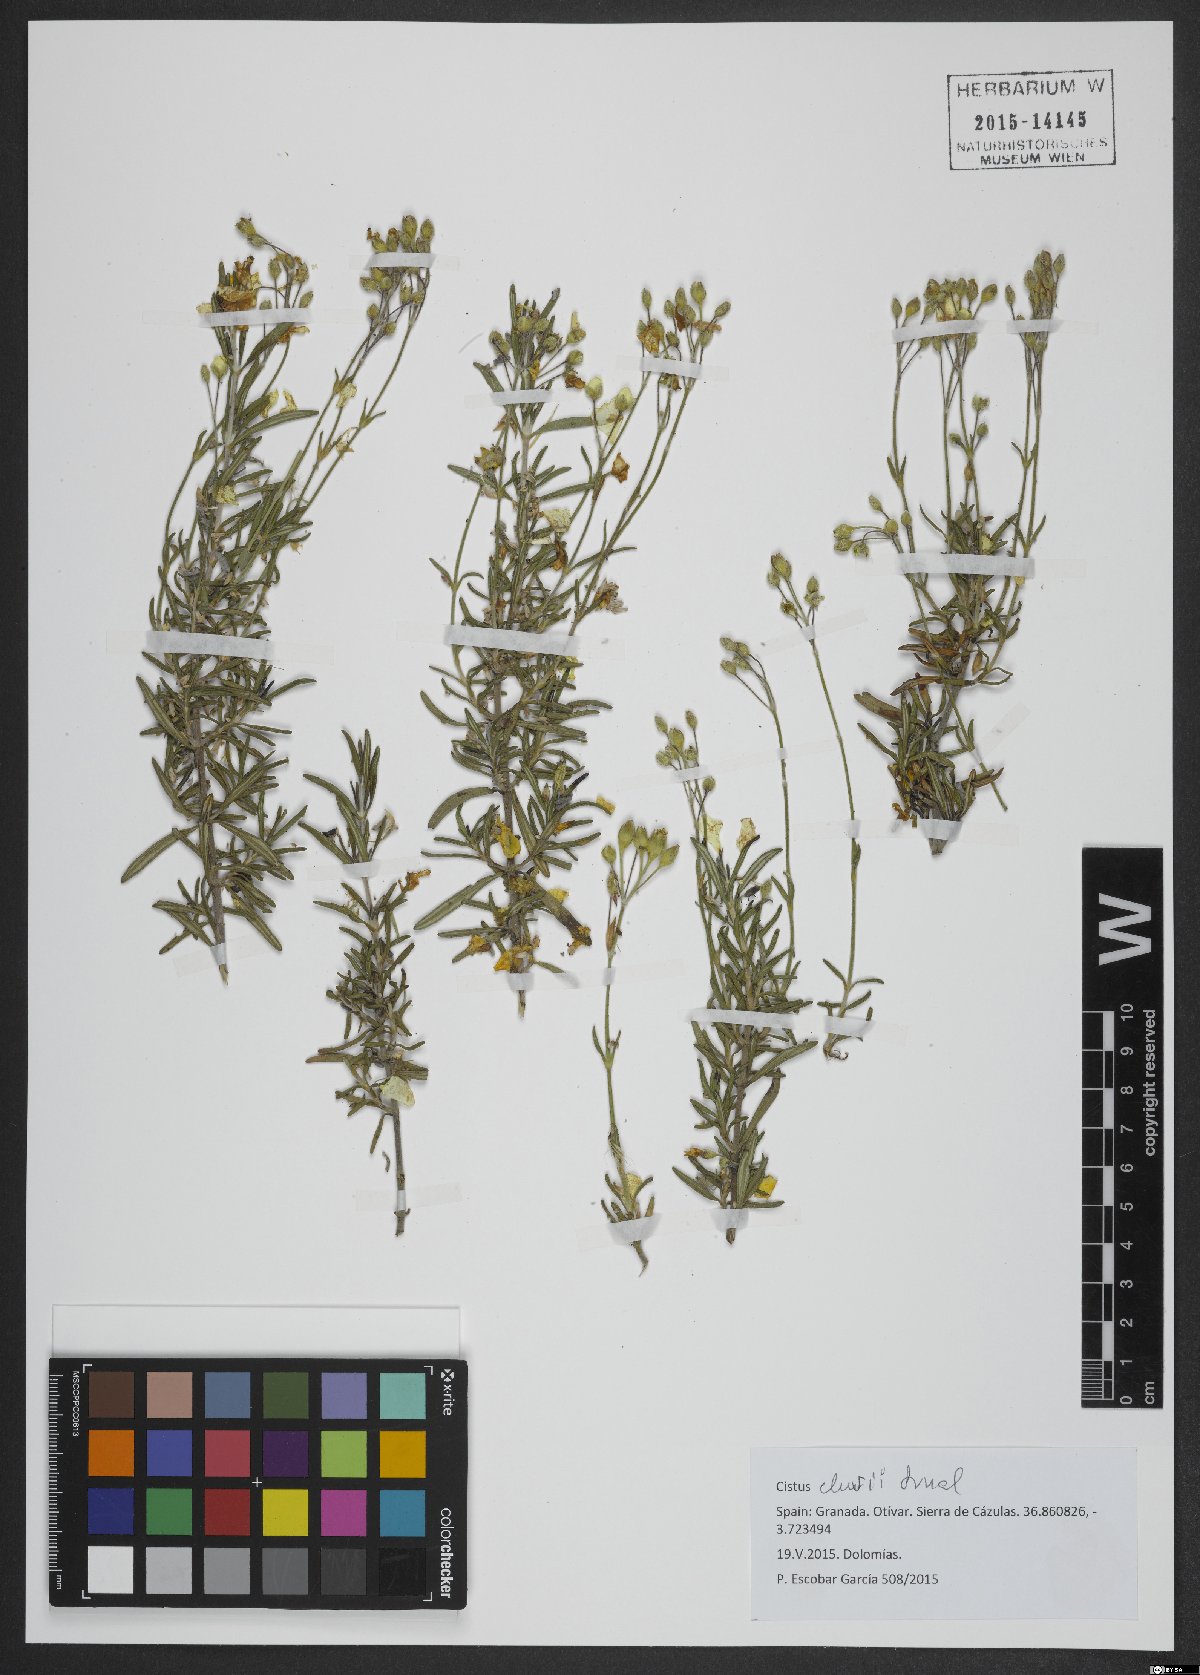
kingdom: Plantae
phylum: Tracheophyta
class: Magnoliopsida
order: Malvales
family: Cistaceae
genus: Cistus
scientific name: Cistus clusii
